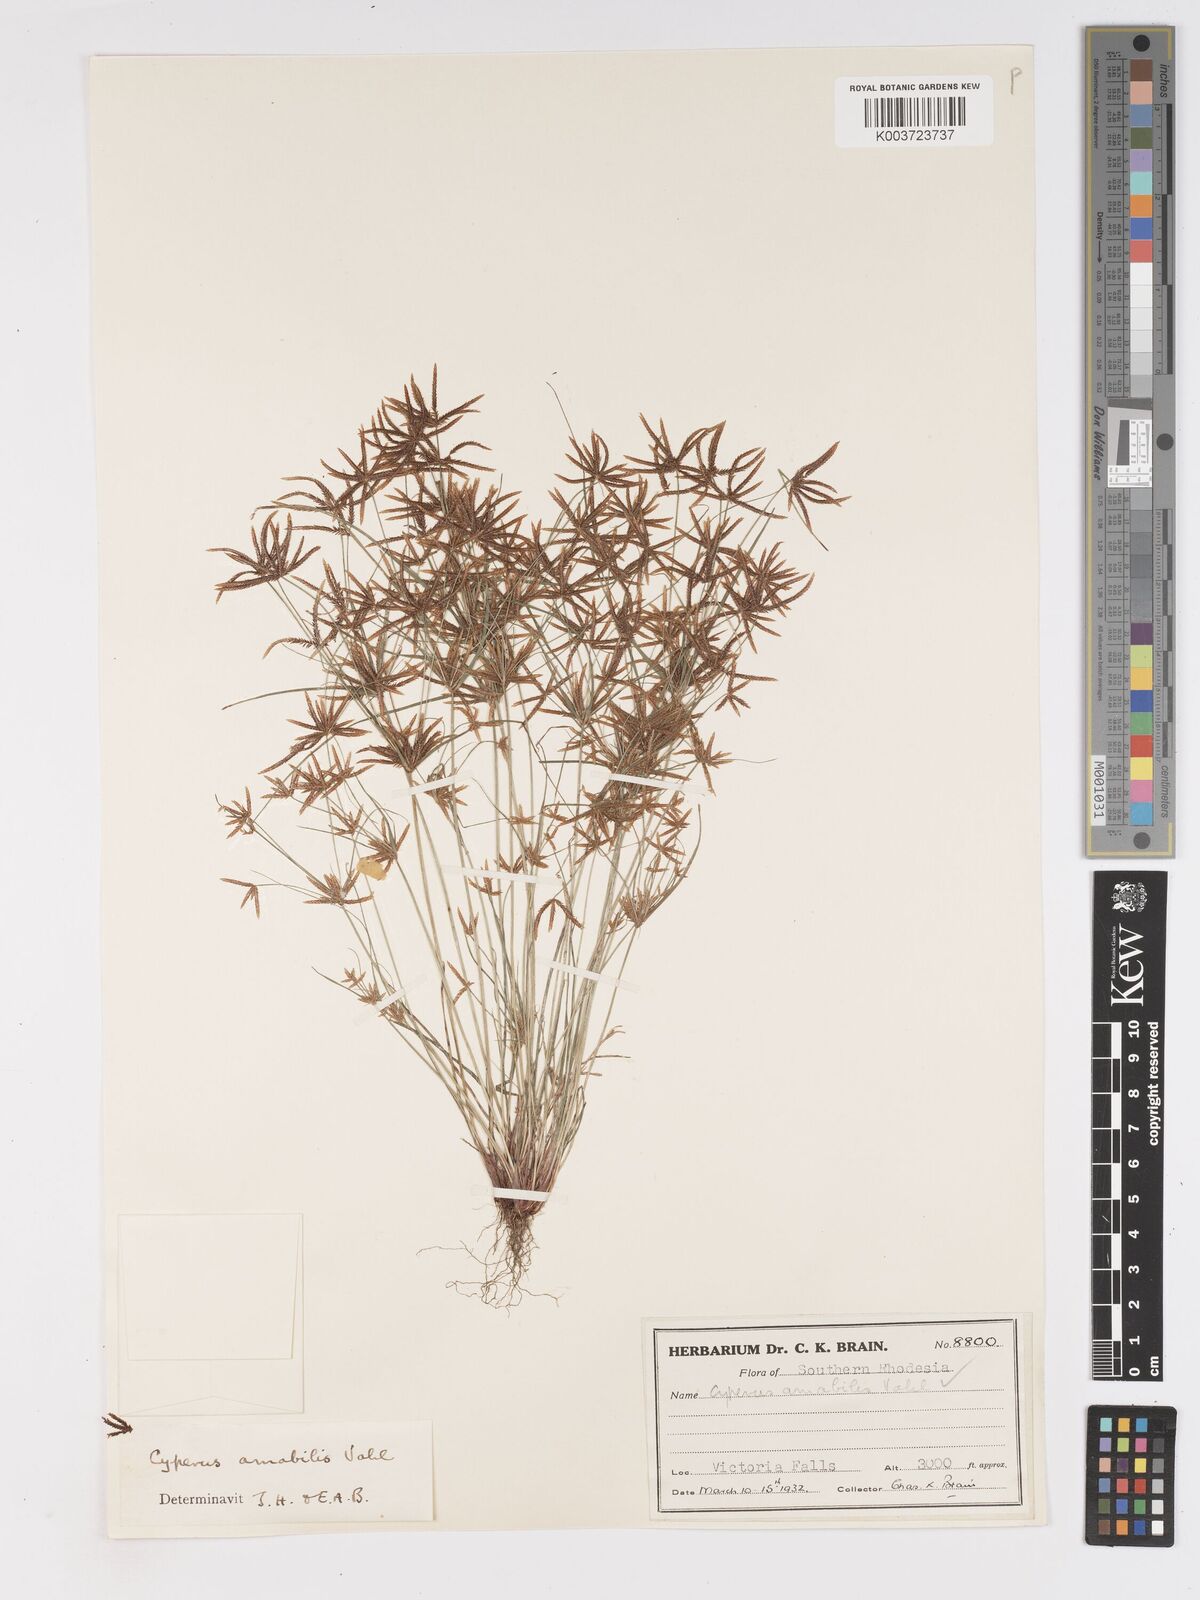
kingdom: Plantae
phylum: Tracheophyta
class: Liliopsida
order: Poales
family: Cyperaceae
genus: Cyperus
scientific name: Cyperus amabilis
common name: Foothill flat sedge
